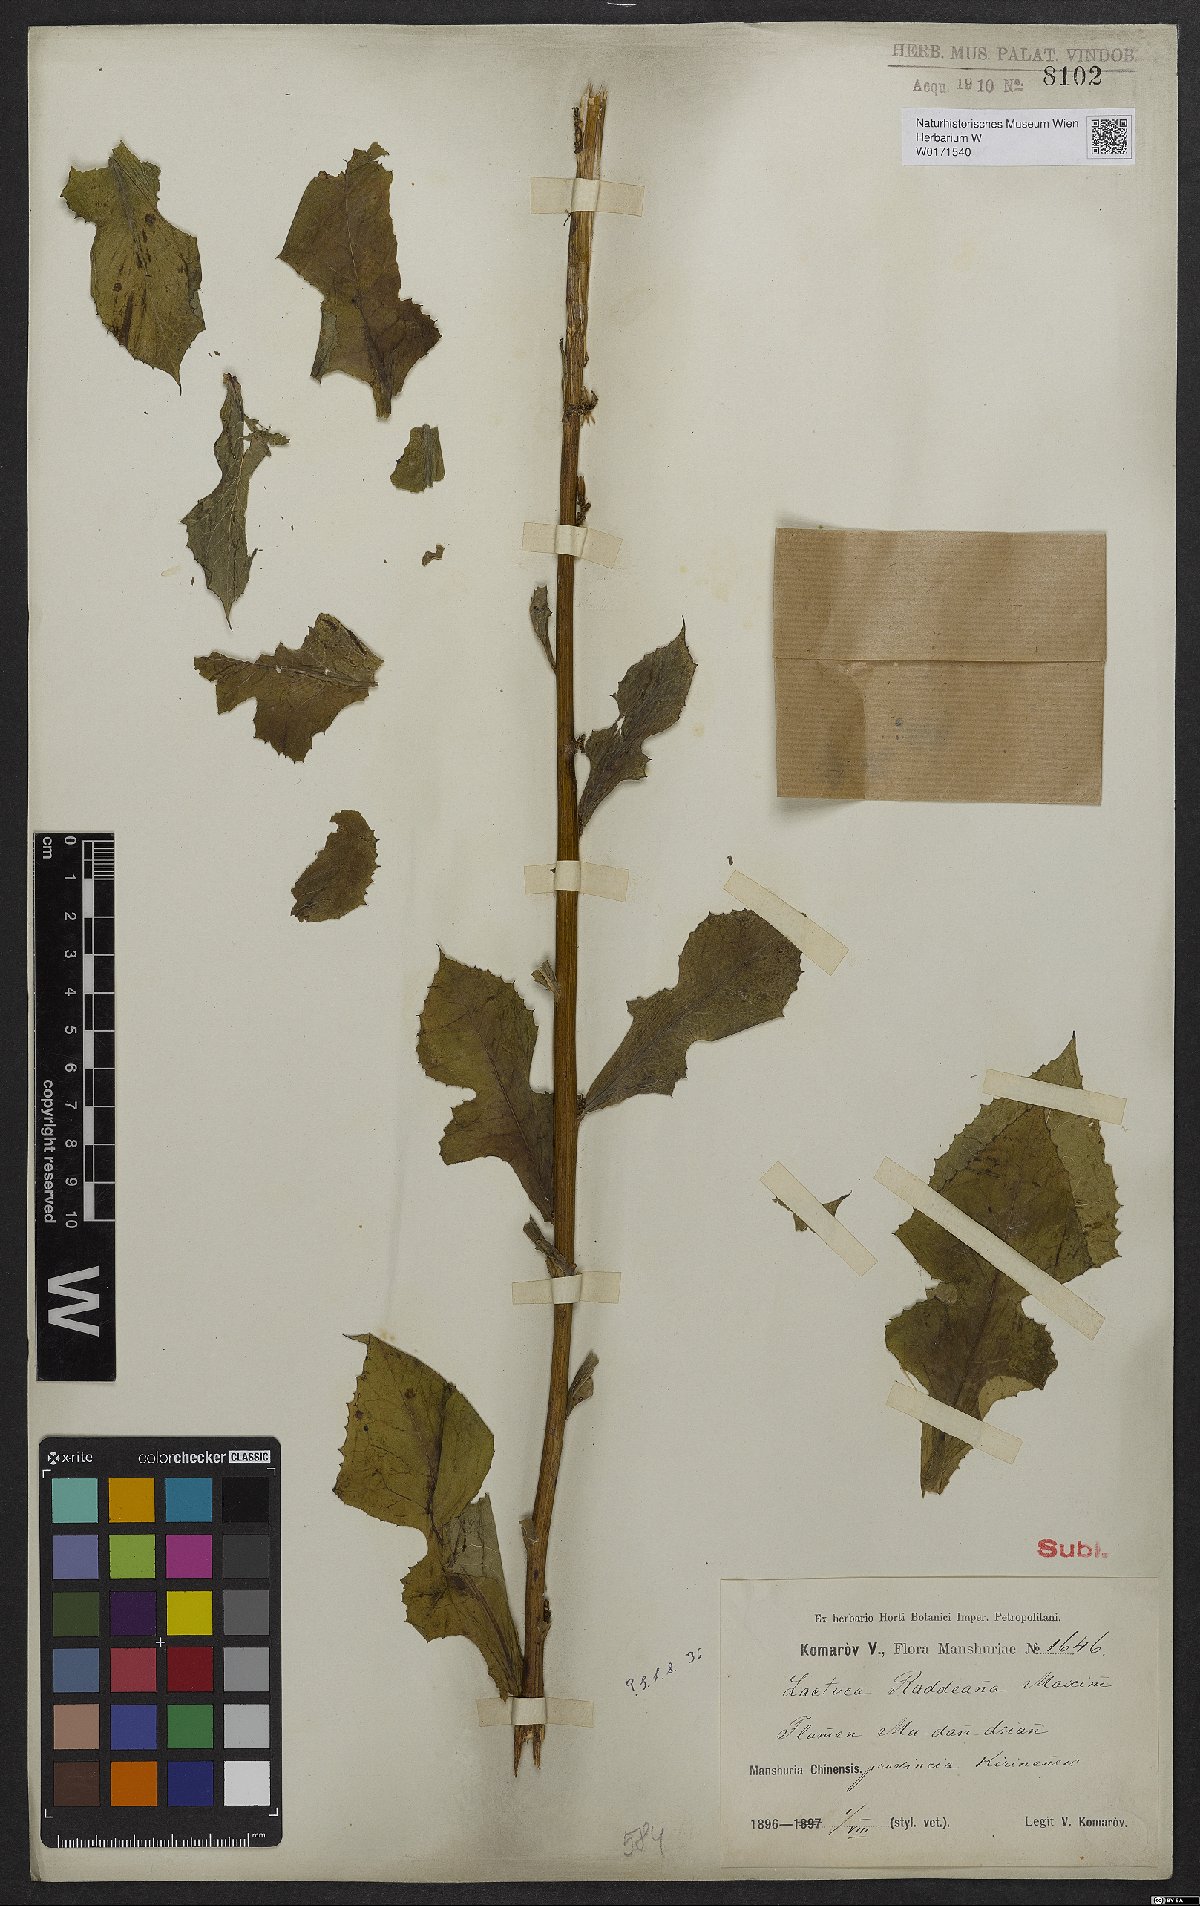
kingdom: Plantae
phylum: Tracheophyta
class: Magnoliopsida
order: Asterales
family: Asteraceae
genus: Lactuca
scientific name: Lactuca raddeana
